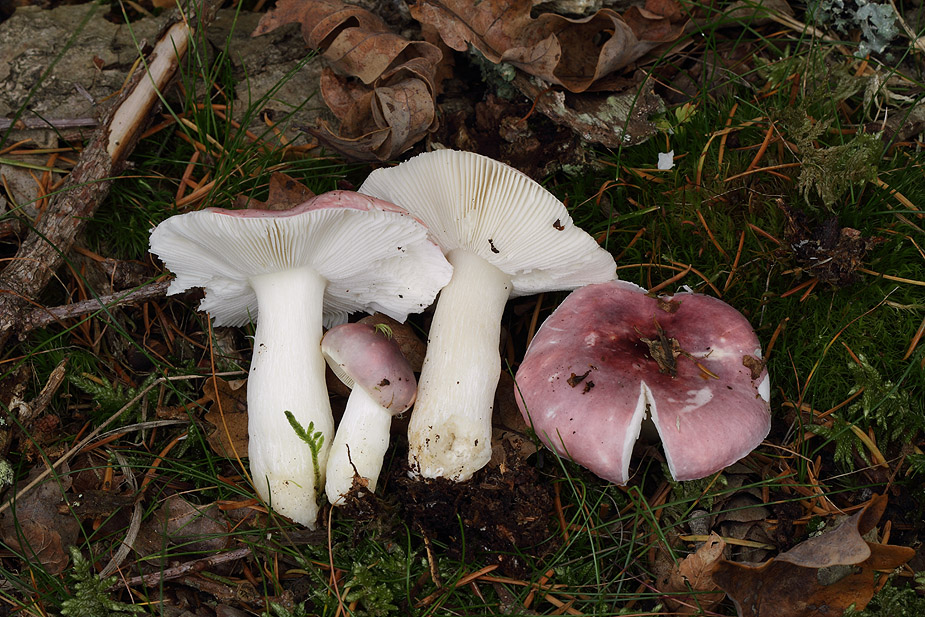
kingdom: Fungi
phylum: Basidiomycota
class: Agaricomycetes
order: Russulales
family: Russulaceae
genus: Russula
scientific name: Russula fragilis
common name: savbladet skørhat
